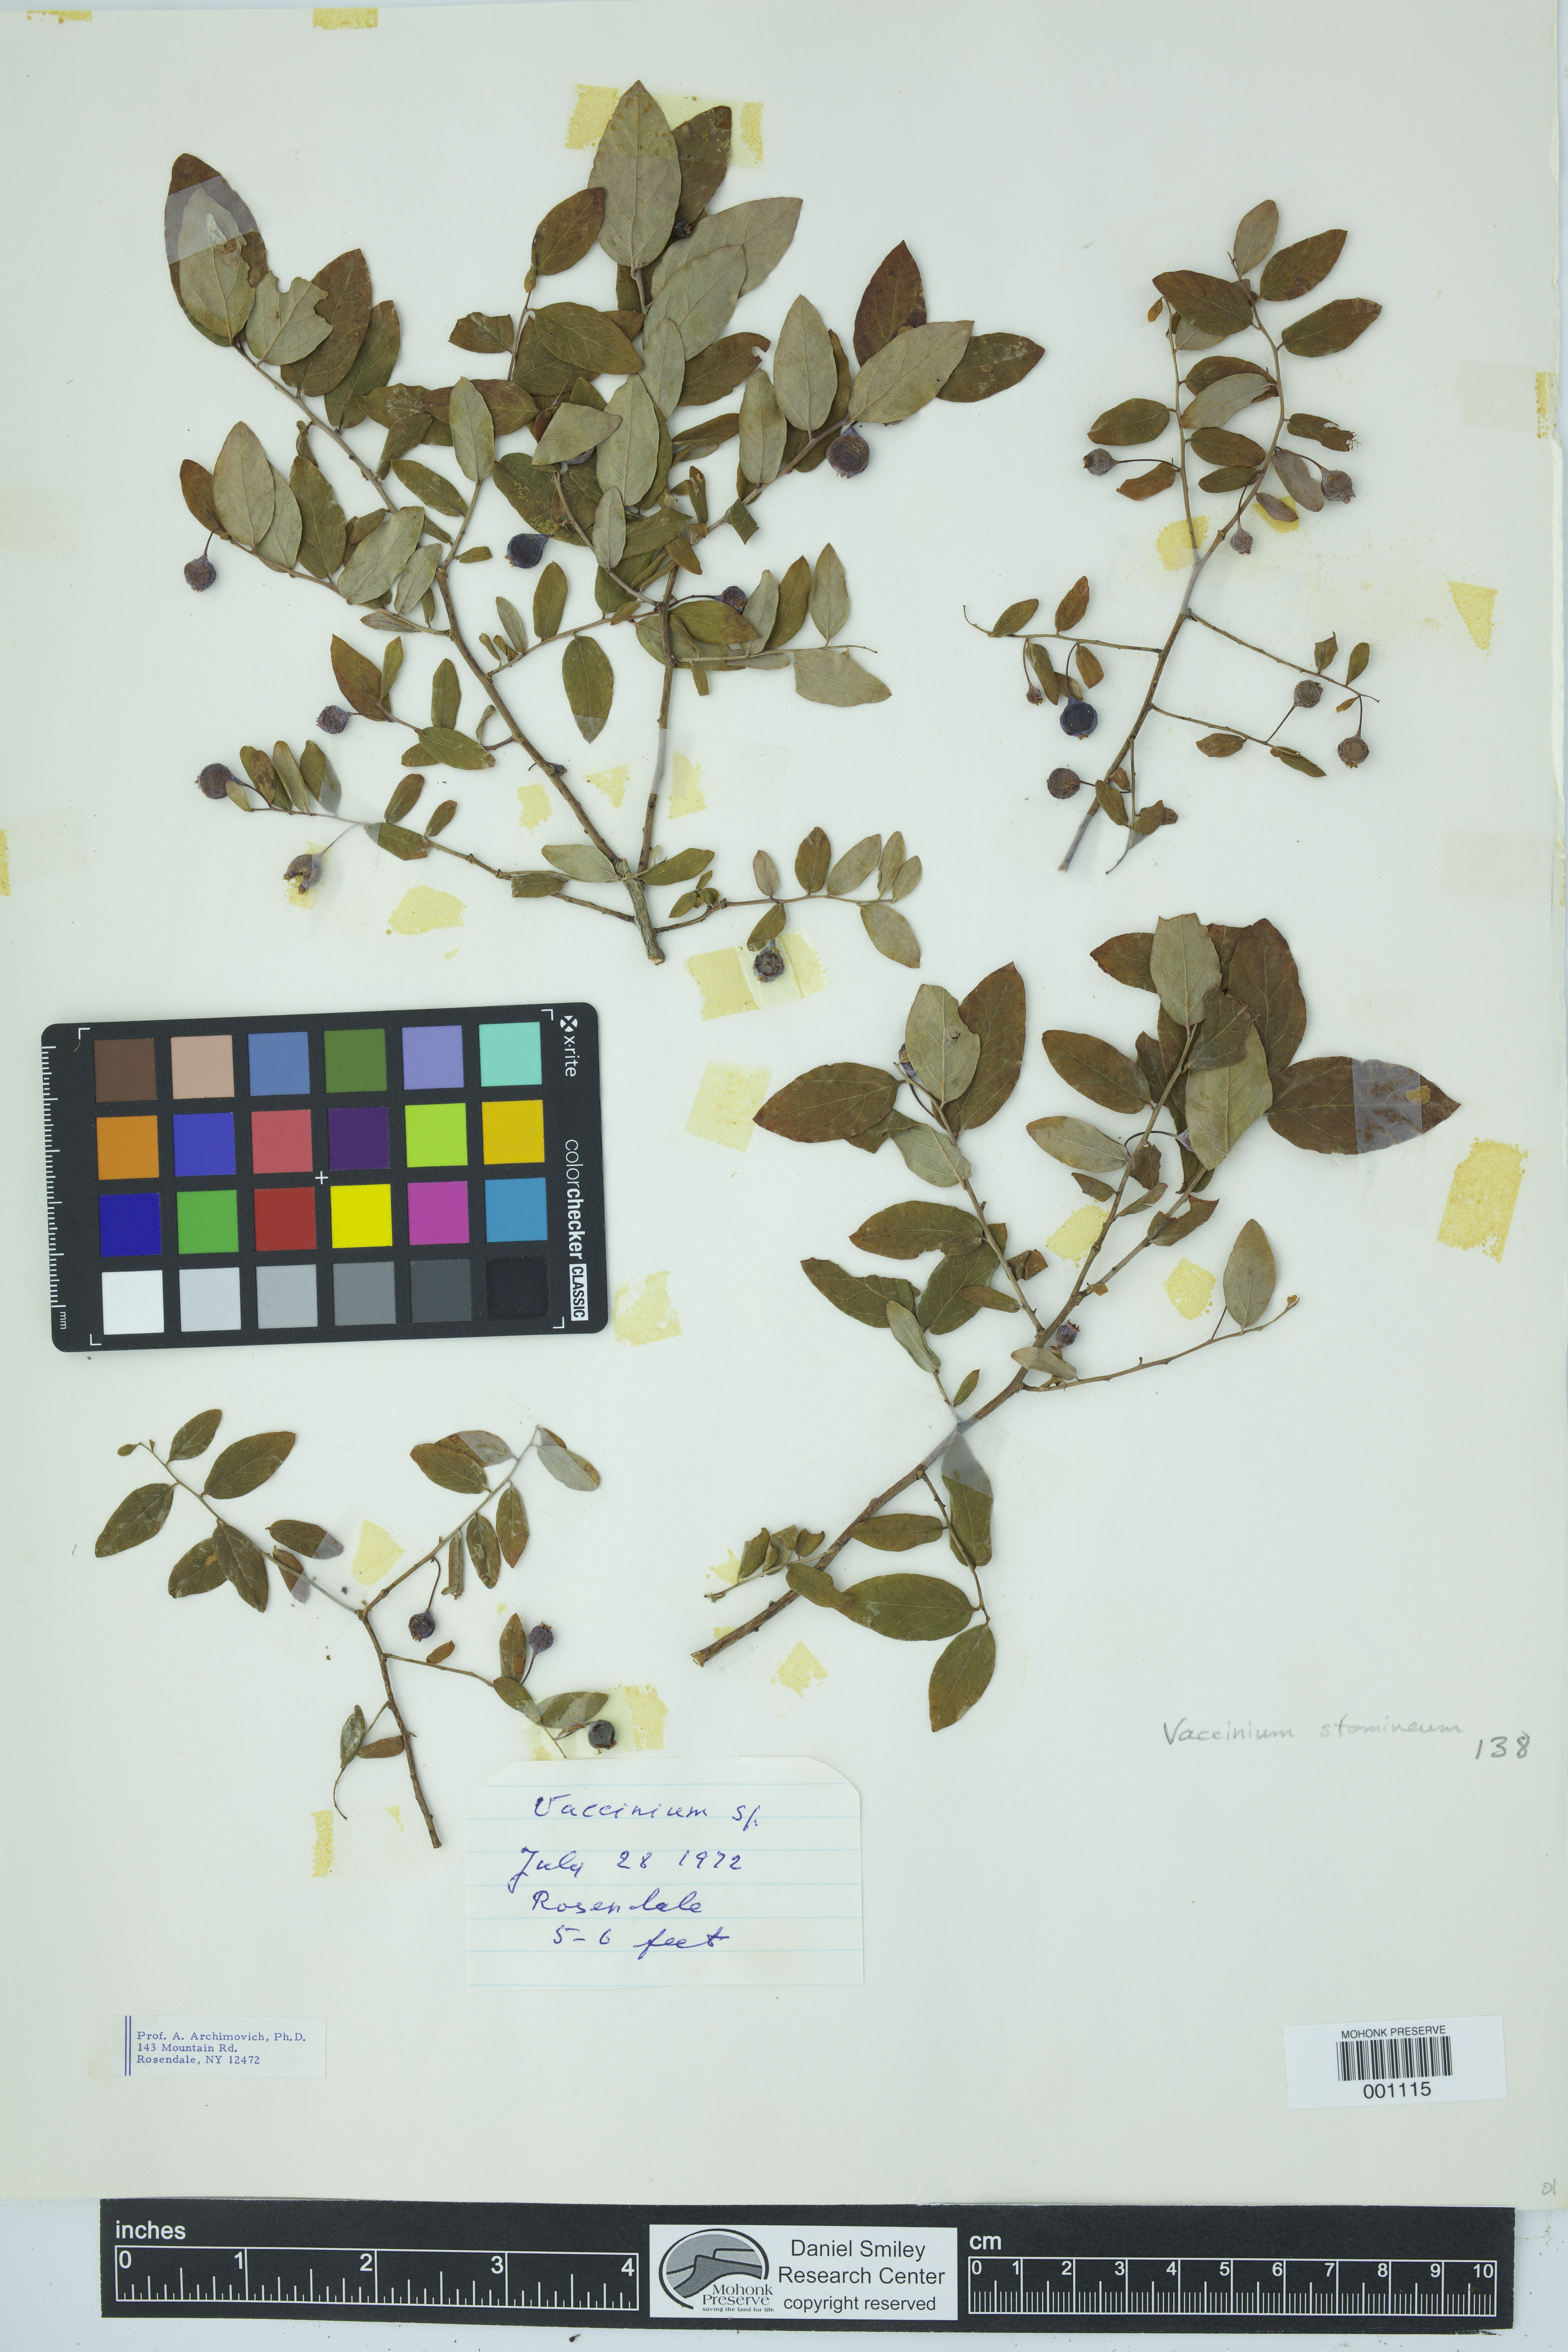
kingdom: Plantae
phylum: Tracheophyta
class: Magnoliopsida
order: Ericales
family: Ericaceae
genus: Vaccinium
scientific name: Vaccinium stamineum
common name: Deerberry
